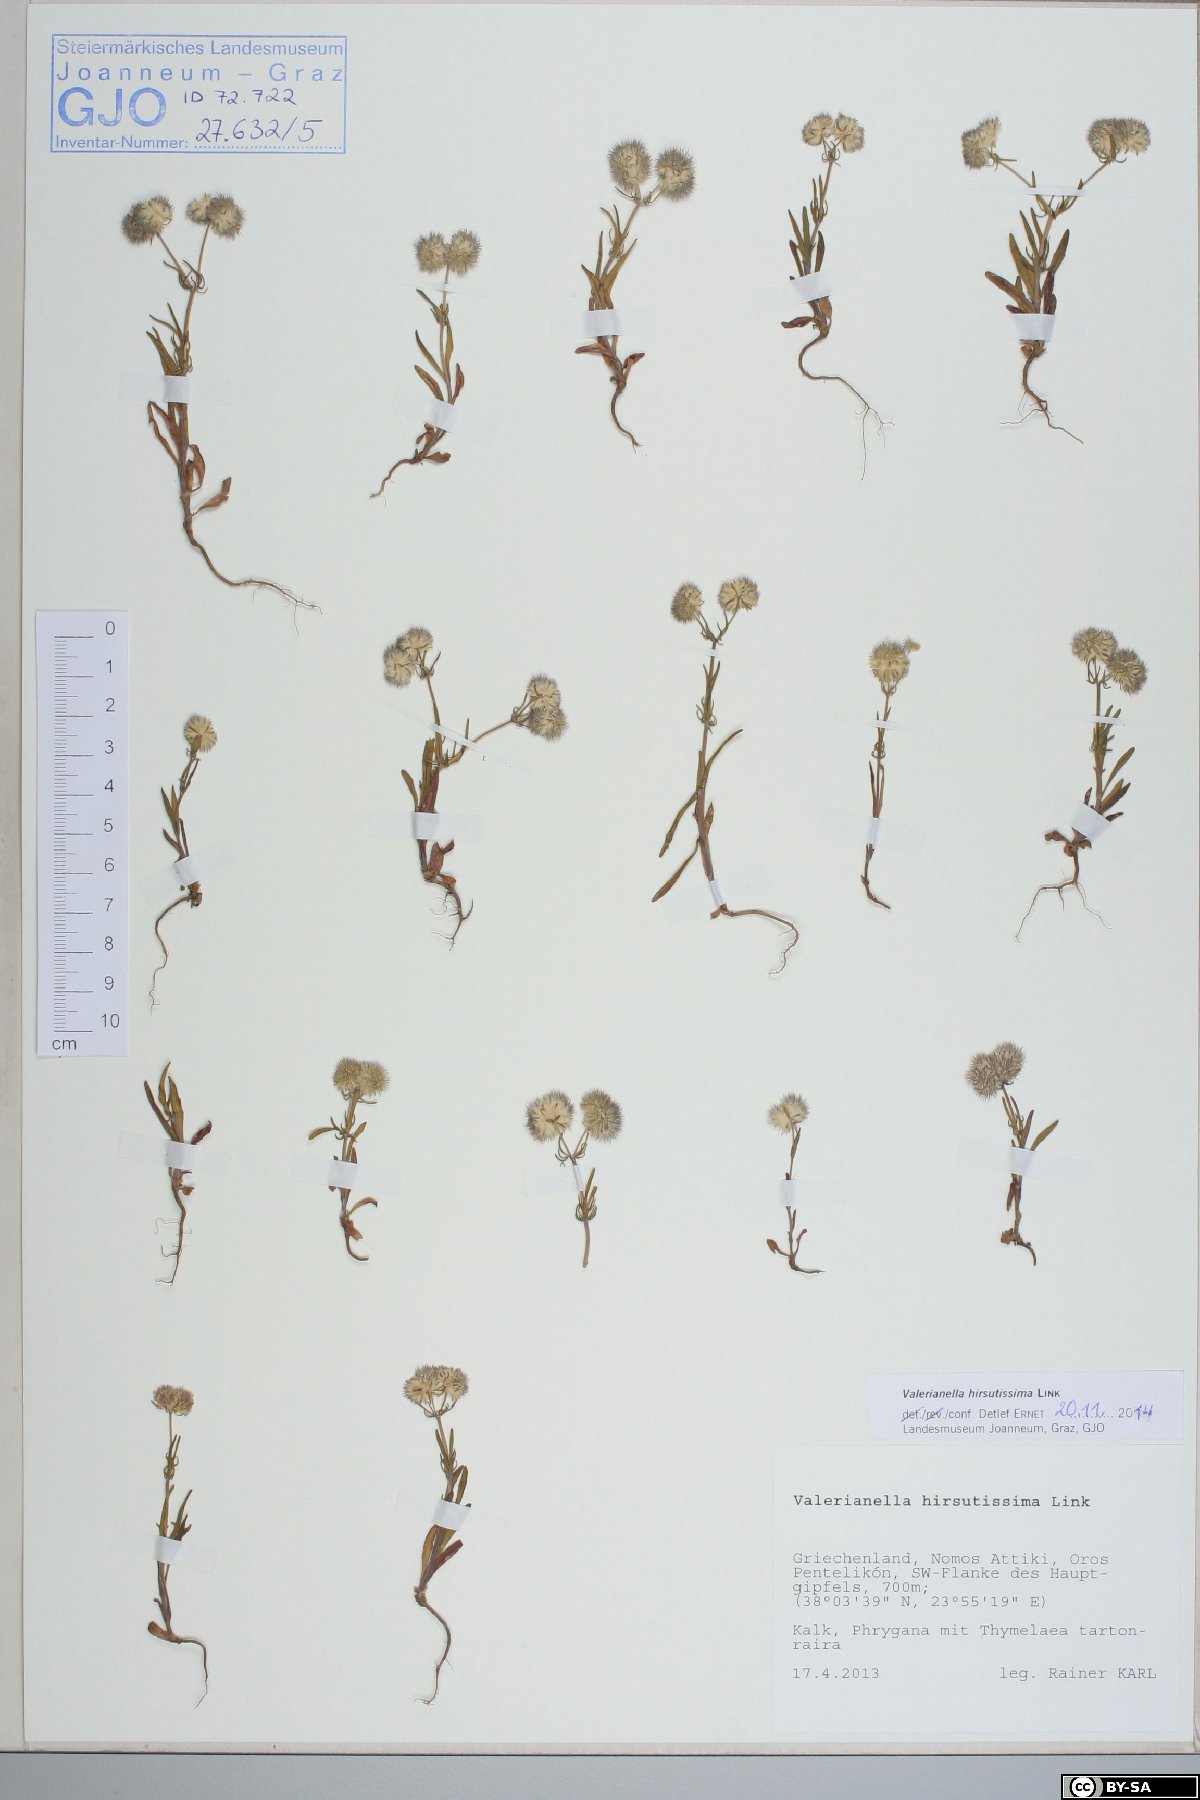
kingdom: Plantae
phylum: Tracheophyta
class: Magnoliopsida
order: Dipsacales
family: Caprifoliaceae
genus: Valerianella
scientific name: Valerianella hirsutissima
